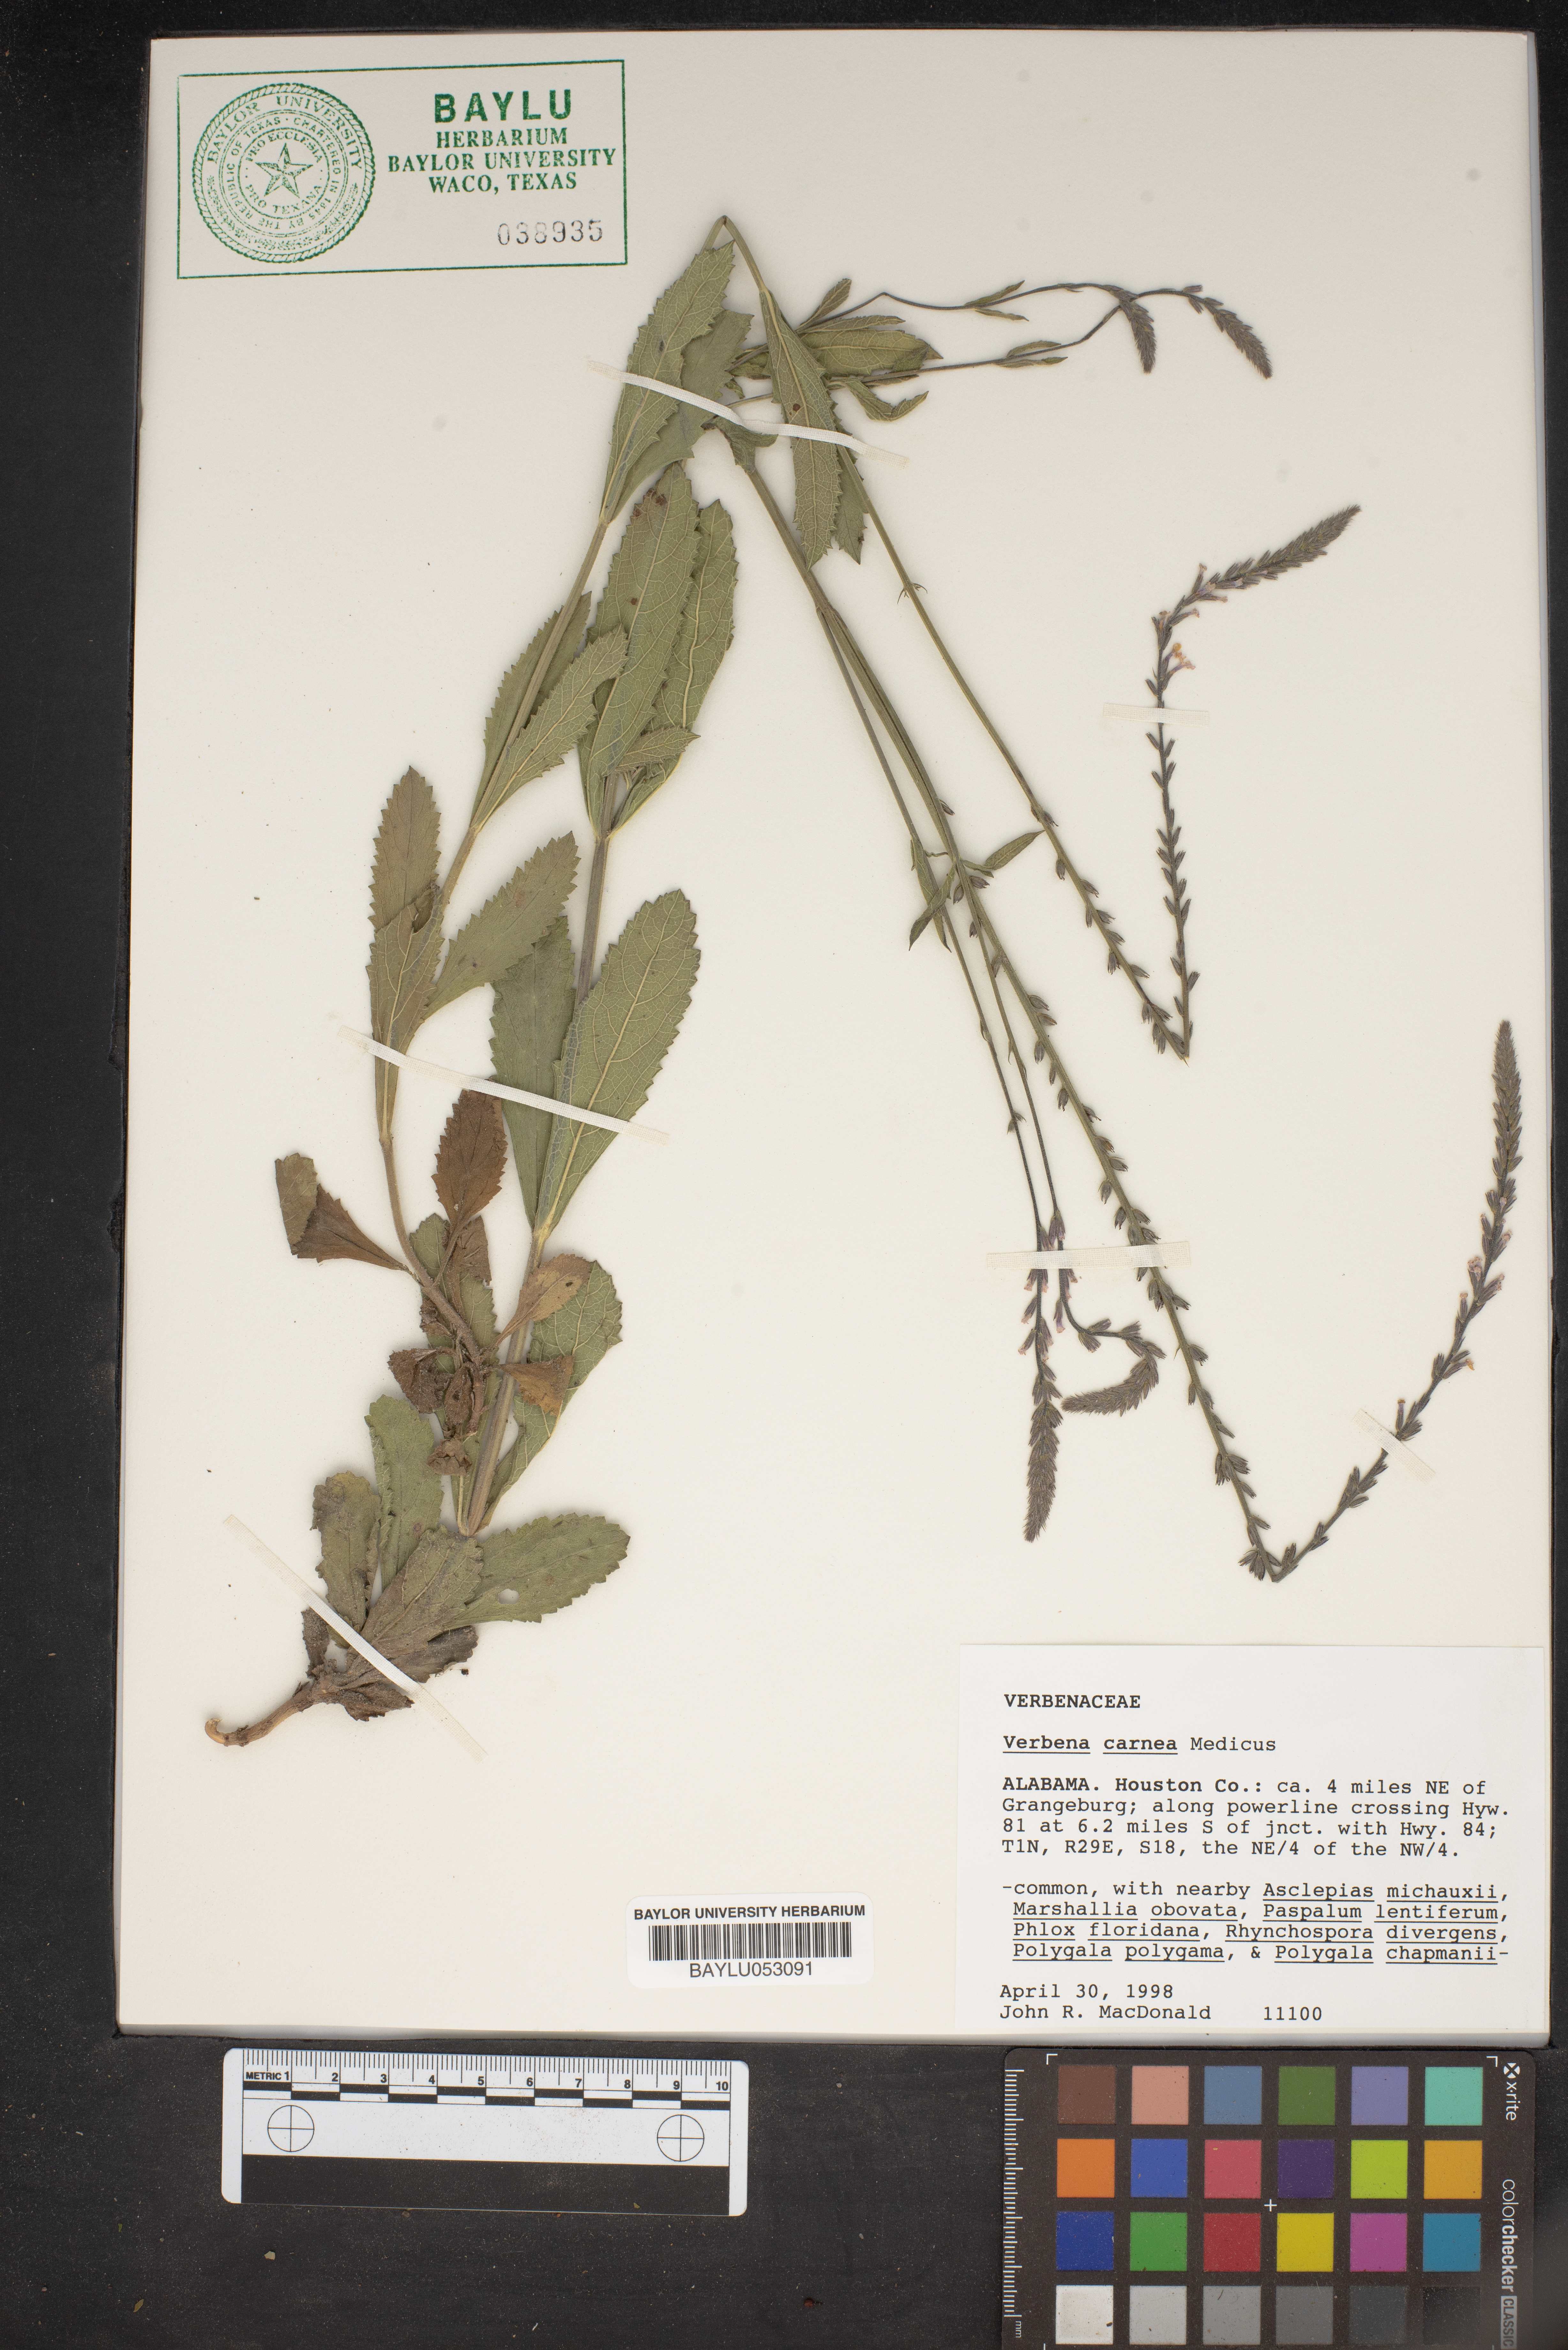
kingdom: Plantae
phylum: Tracheophyta
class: Magnoliopsida
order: Lamiales
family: Verbenaceae
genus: Verbena
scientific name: Verbena carnea
